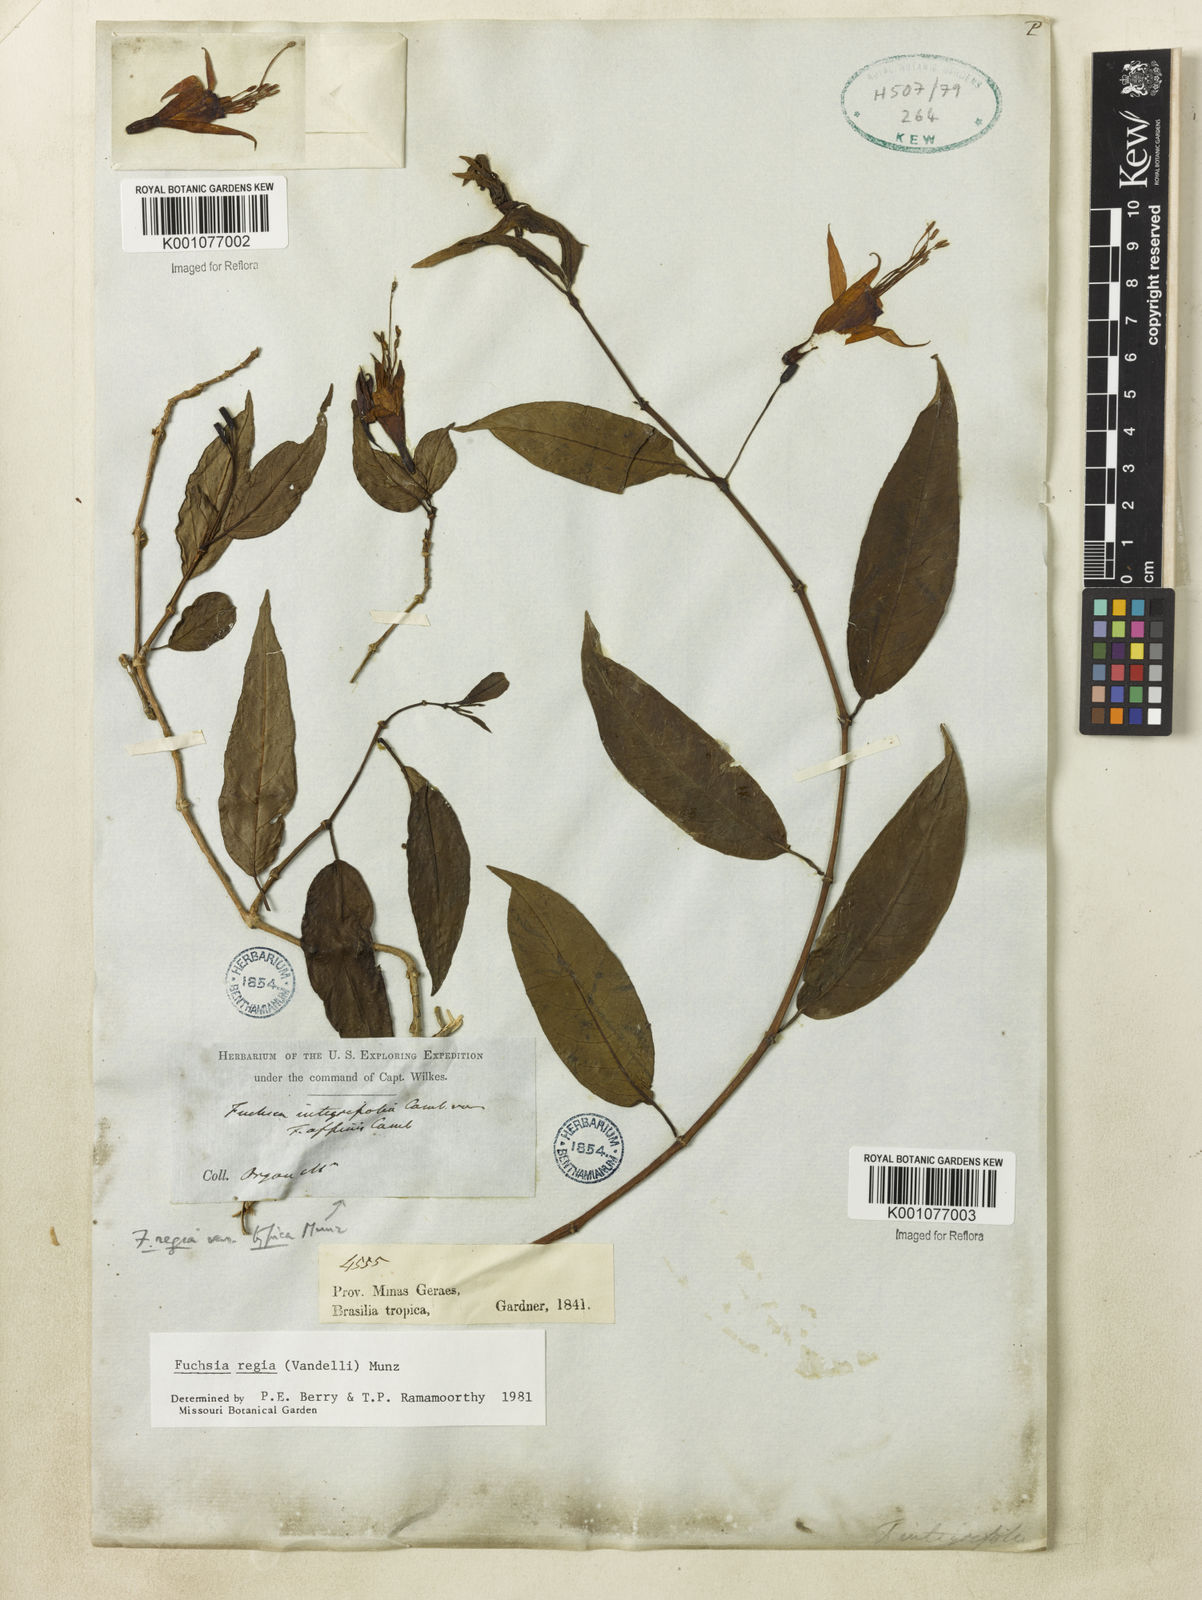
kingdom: Plantae
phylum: Tracheophyta
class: Magnoliopsida
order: Myrtales
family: Onagraceae
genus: Fuchsia
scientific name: Fuchsia regia
